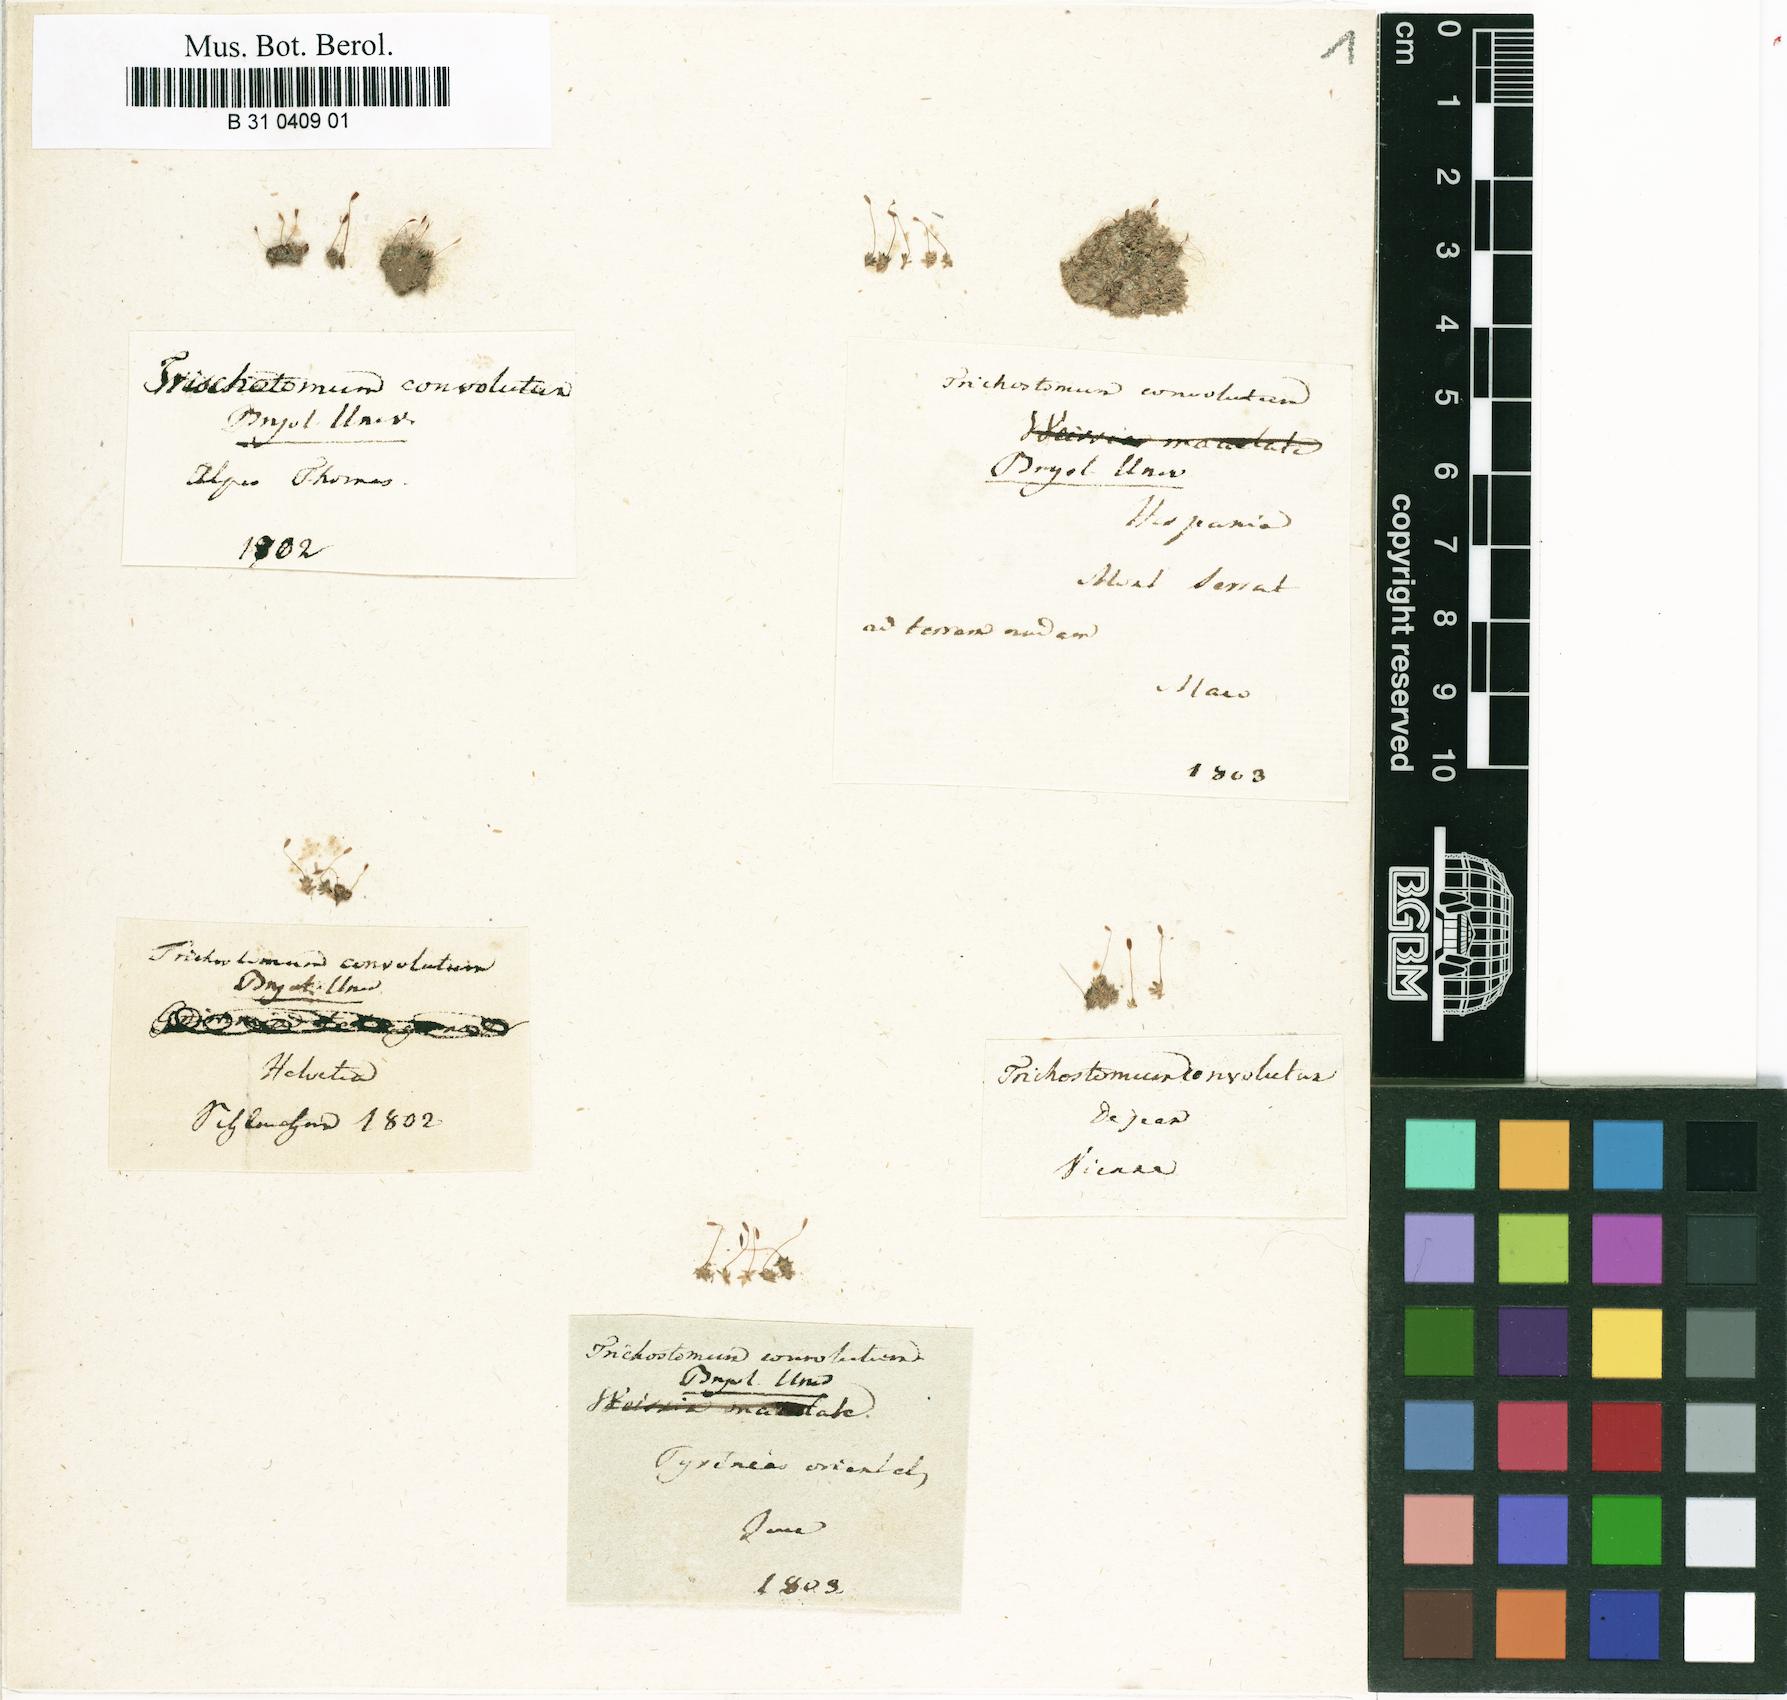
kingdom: Plantae
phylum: Bryophyta
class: Bryopsida
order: Pottiales
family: Pottiaceae
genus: Tortula
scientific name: Tortula atrovirens
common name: Rib-leaf moss
